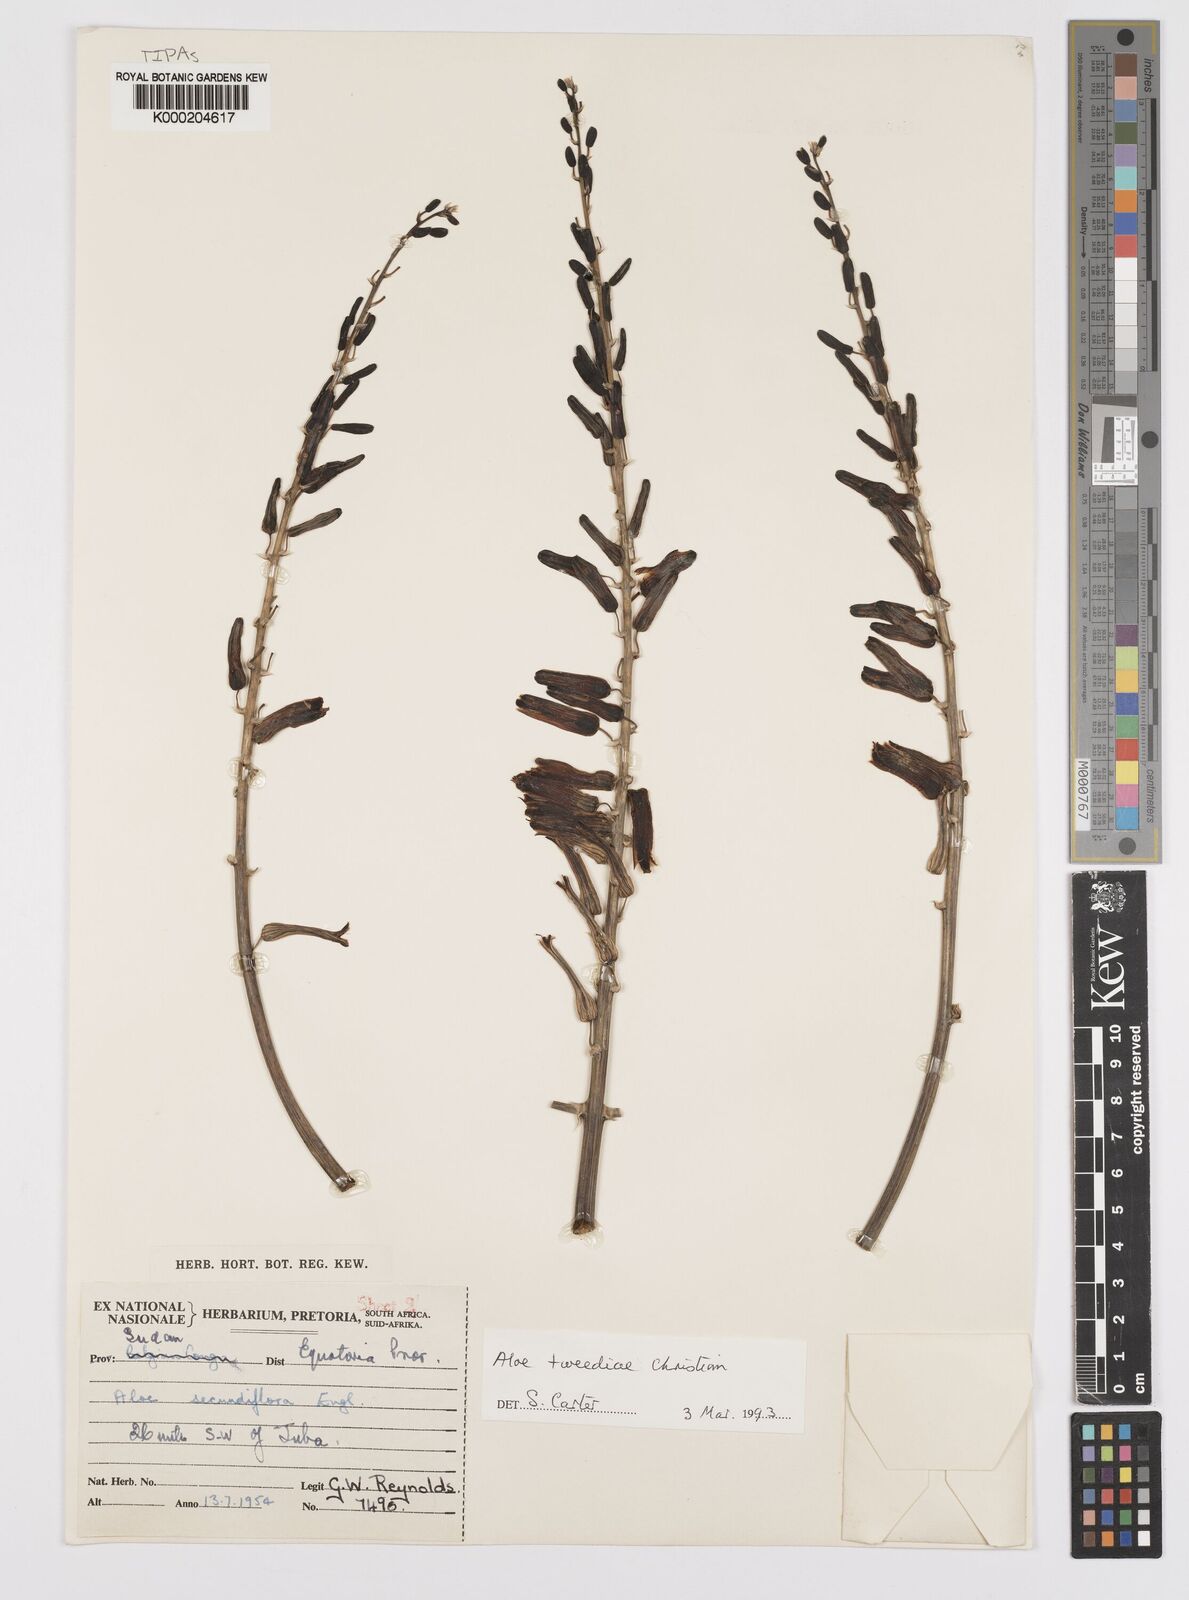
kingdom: Plantae
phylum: Tracheophyta
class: Liliopsida
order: Asparagales
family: Asphodelaceae
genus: Aloe
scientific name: Aloe
